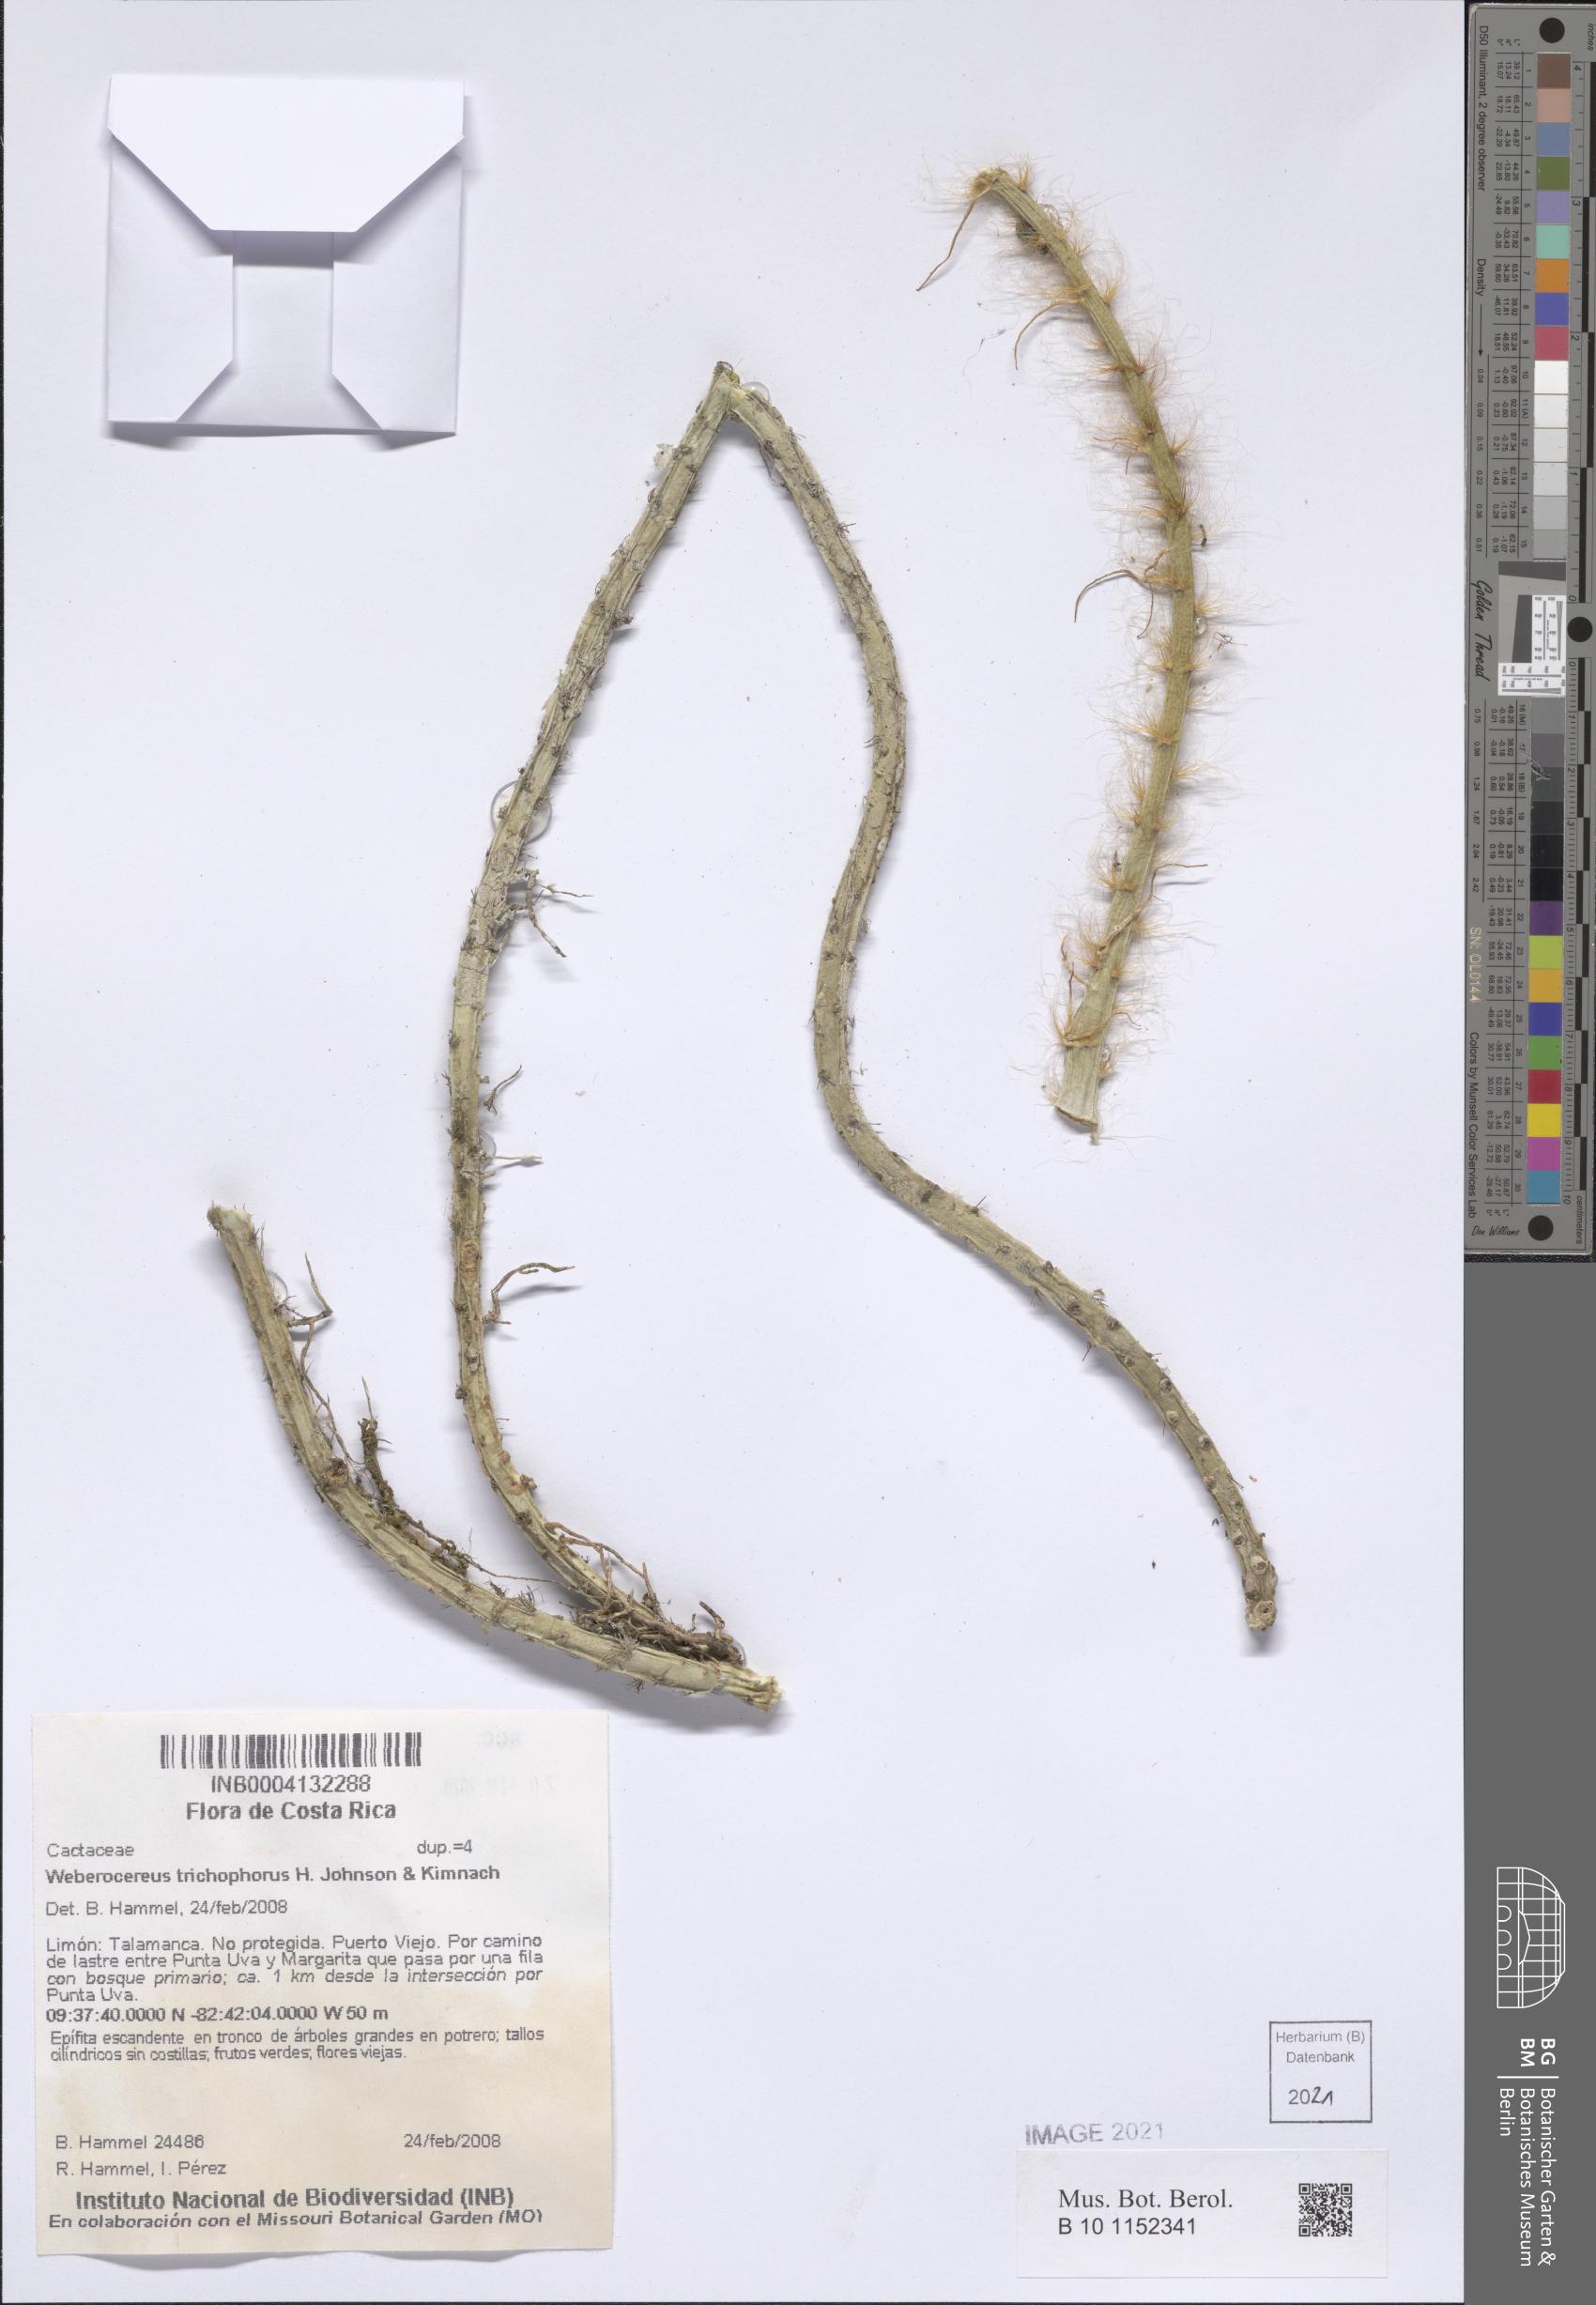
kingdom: Plantae
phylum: Tracheophyta
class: Magnoliopsida
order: Caryophyllales
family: Cactaceae
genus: Weberocereus
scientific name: Weberocereus trichophorus
